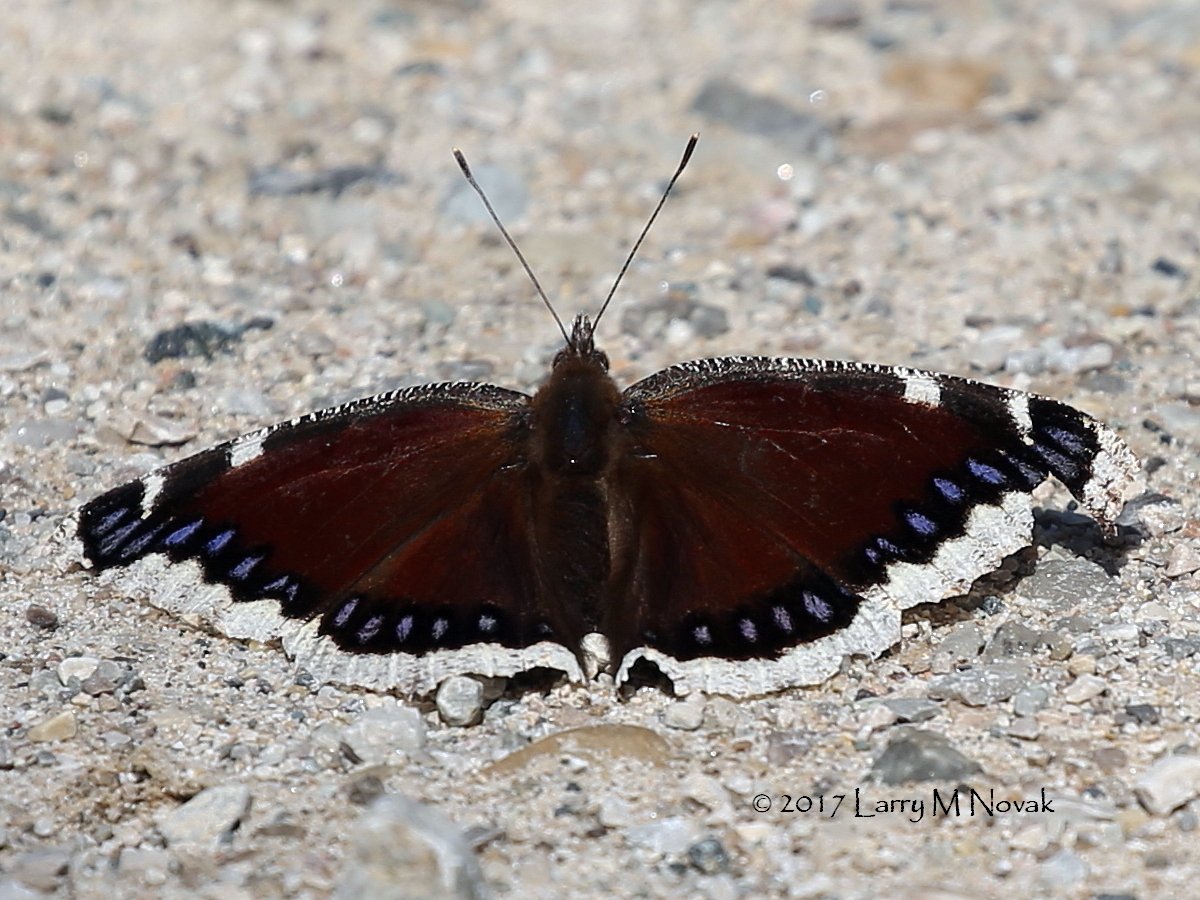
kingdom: Animalia
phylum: Arthropoda
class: Insecta
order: Lepidoptera
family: Nymphalidae
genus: Nymphalis
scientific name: Nymphalis antiopa
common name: Mourning Cloak
